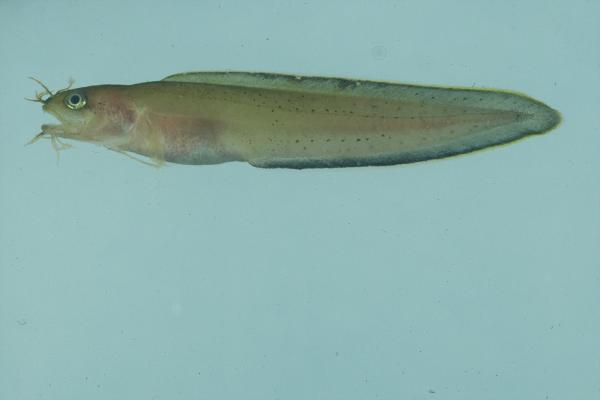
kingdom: Animalia
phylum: Chordata
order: Ophidiiformes
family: Ophidiidae
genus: Brotula
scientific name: Brotula multibarbata
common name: Goatsbeard brotula
